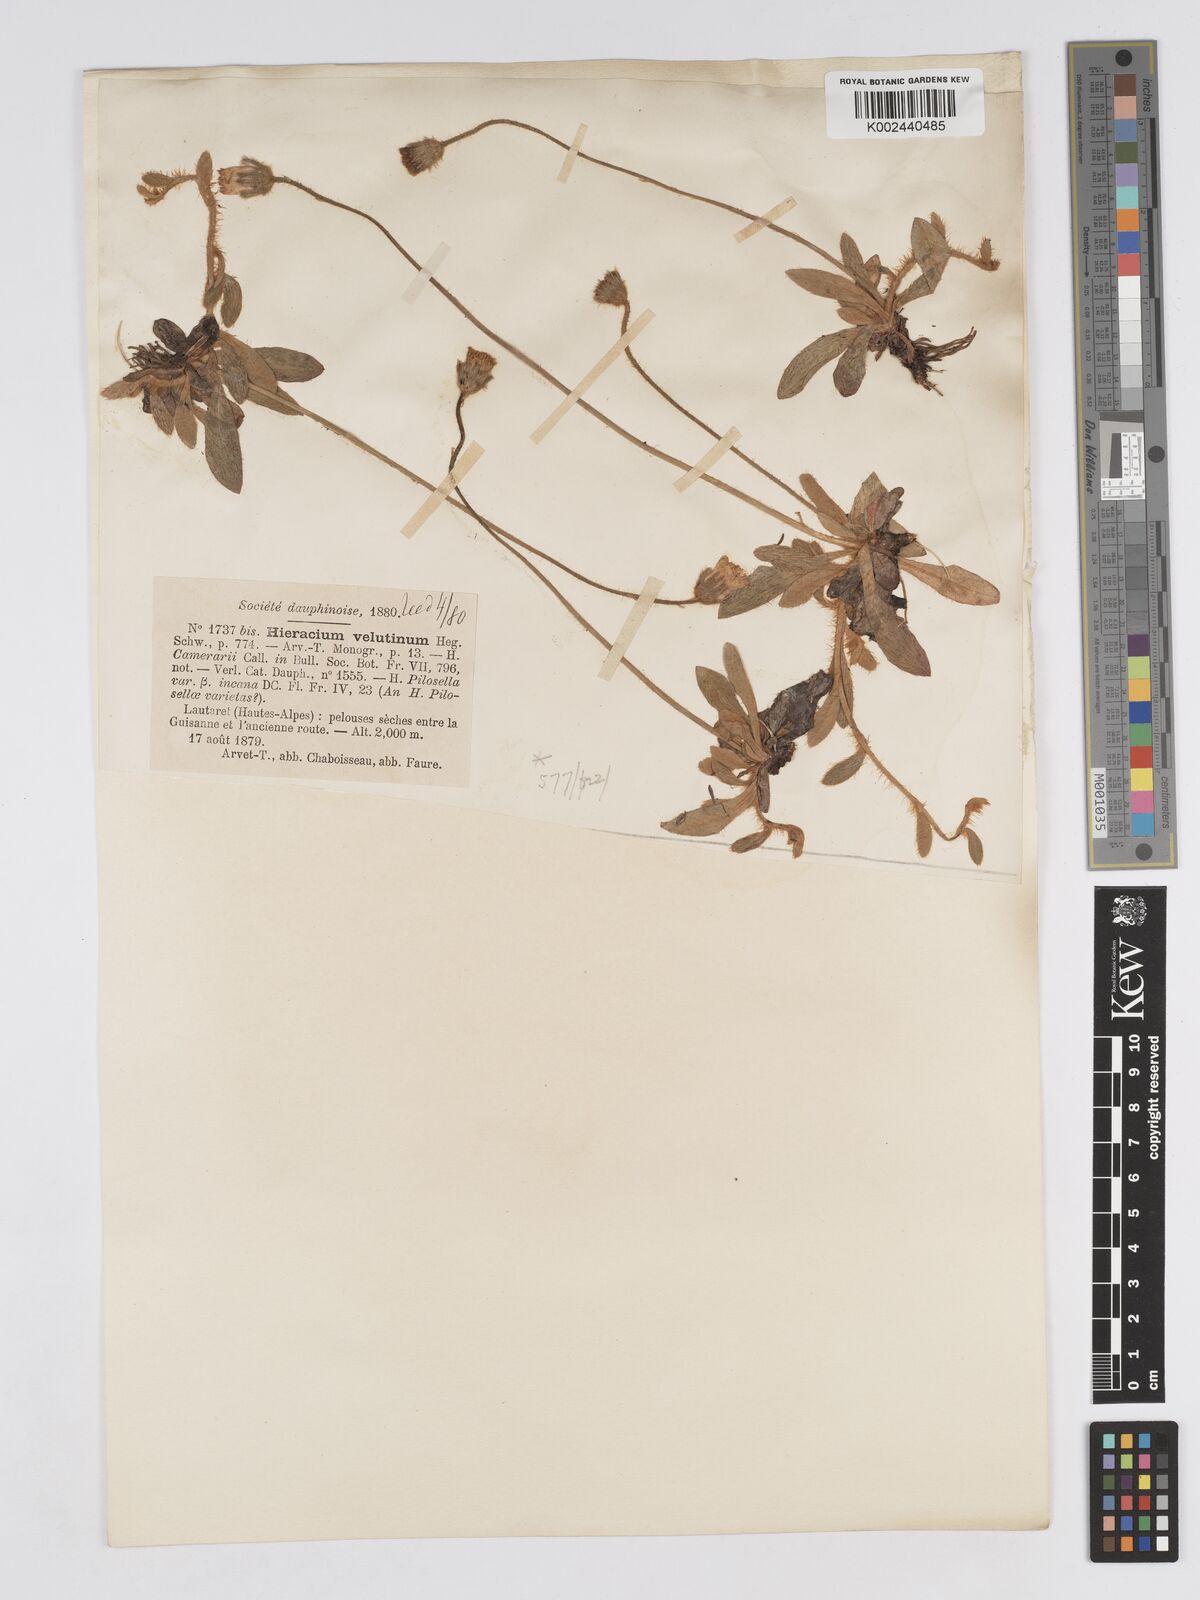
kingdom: Plantae
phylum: Tracheophyta
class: Magnoliopsida
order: Asterales
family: Asteraceae
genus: Pilosella
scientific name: Pilosella velutina
